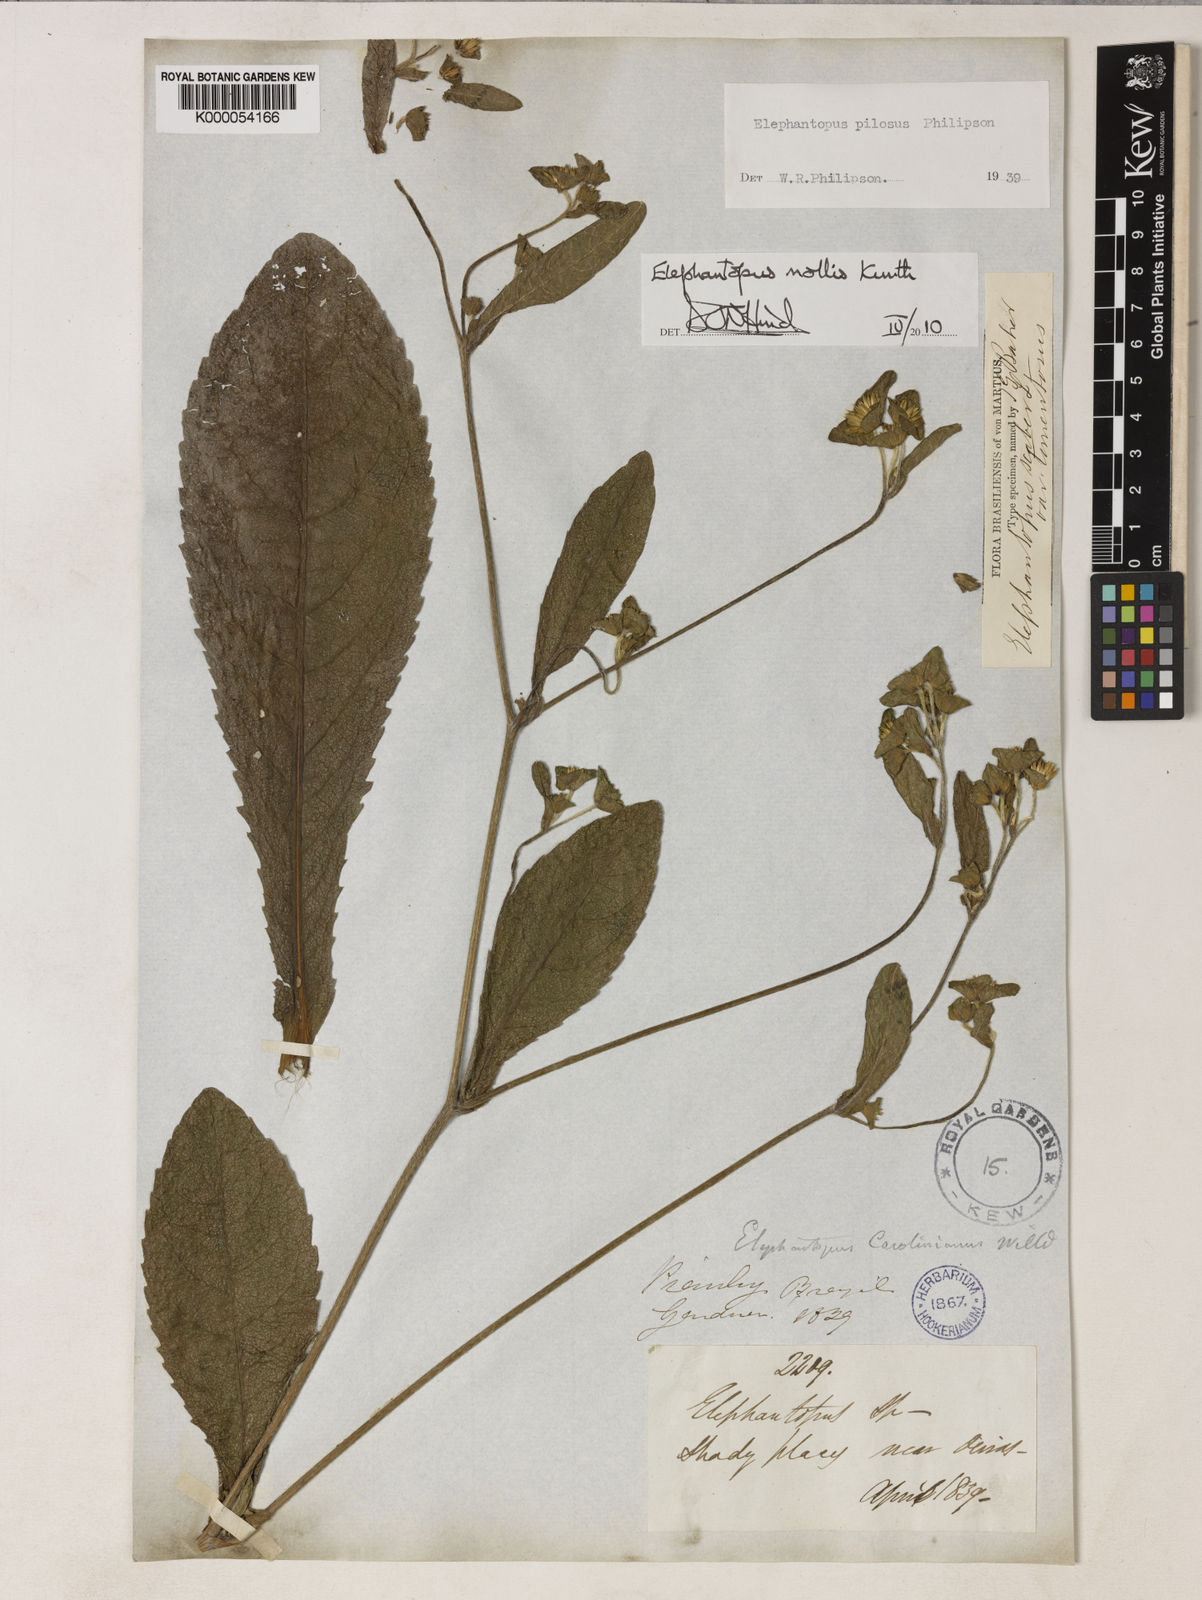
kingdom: Plantae
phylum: Tracheophyta
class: Magnoliopsida
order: Asterales
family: Asteraceae
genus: Elephantopus
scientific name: Elephantopus mollis
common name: Soft elephantsfoot
